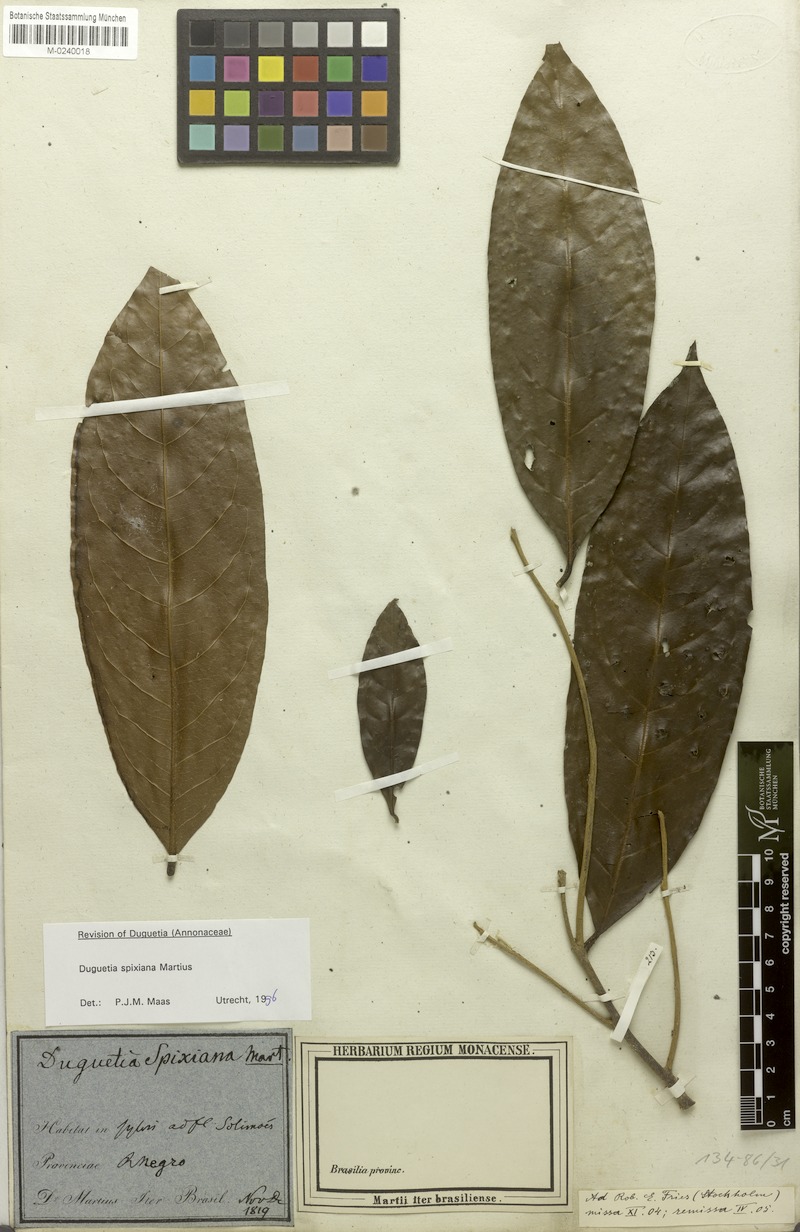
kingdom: Plantae
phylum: Tracheophyta
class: Magnoliopsida
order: Magnoliales
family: Annonaceae
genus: Duguetia
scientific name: Duguetia spixiana
